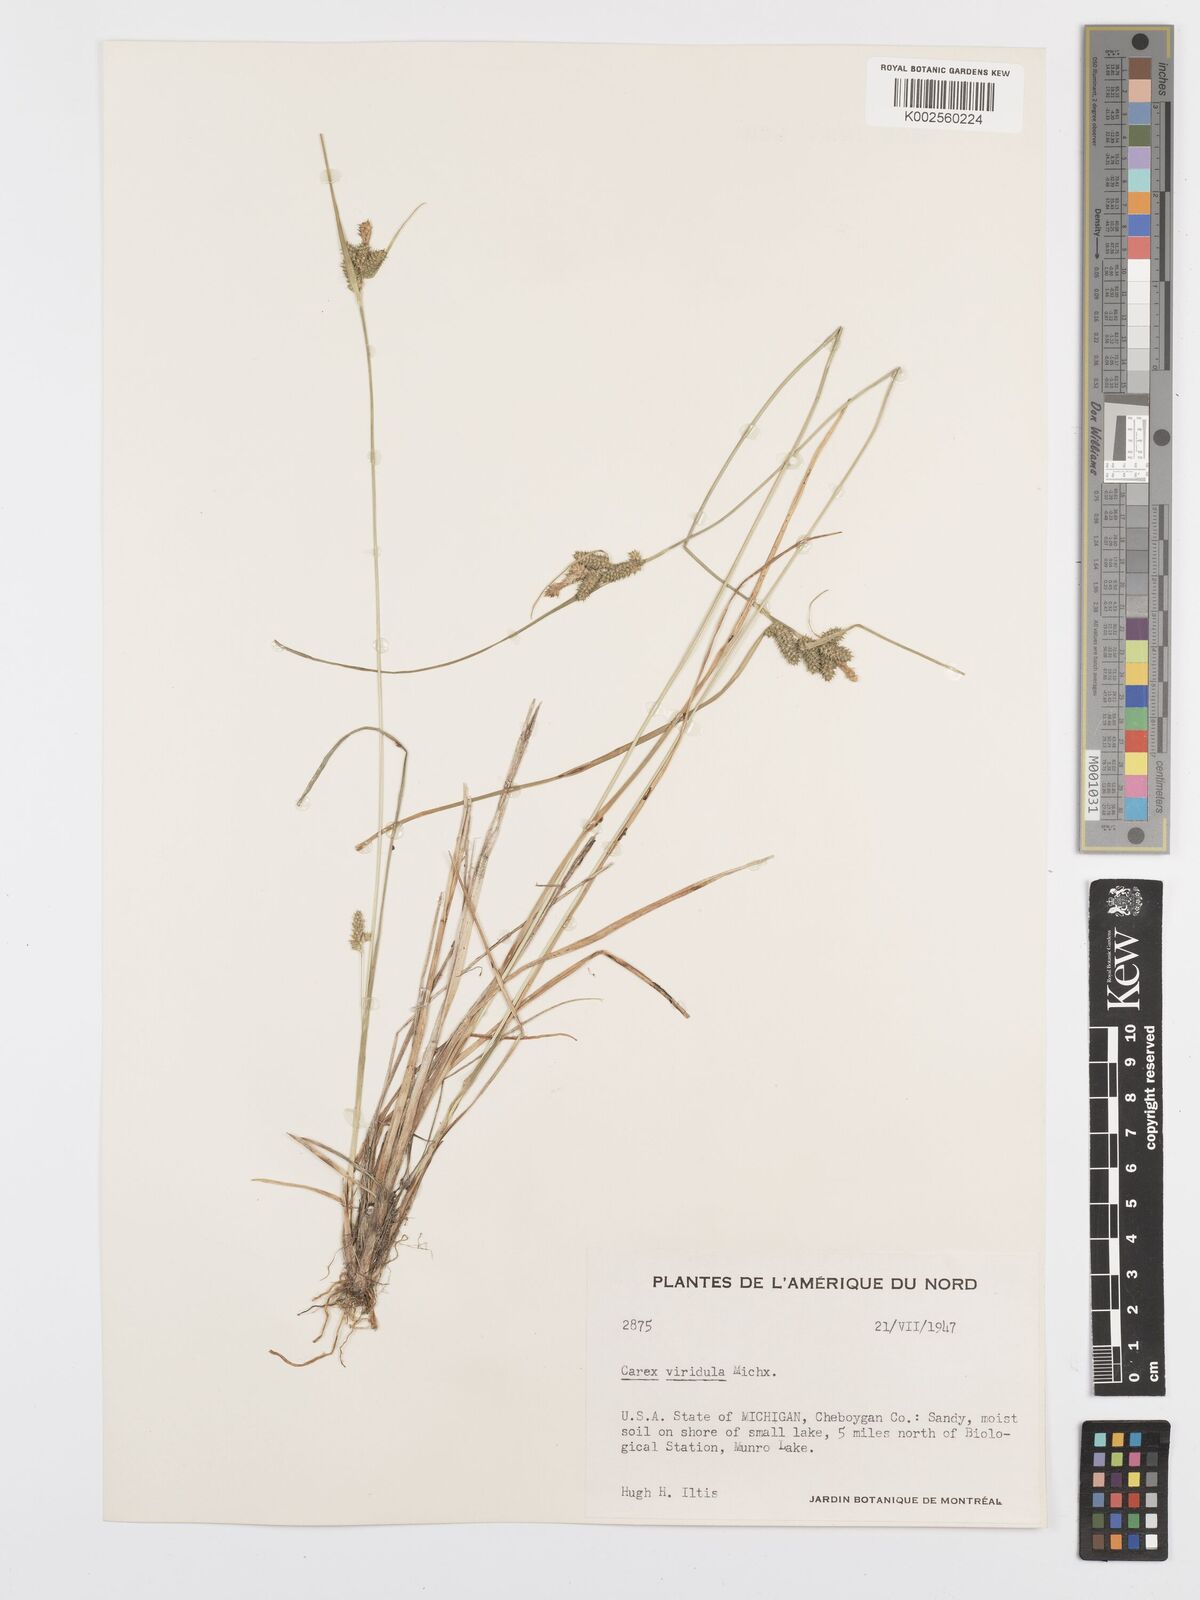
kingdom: Plantae
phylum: Tracheophyta
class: Liliopsida
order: Poales
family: Cyperaceae
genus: Carex
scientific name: Carex oederi
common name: Common & small-fruited yellow-sedge
